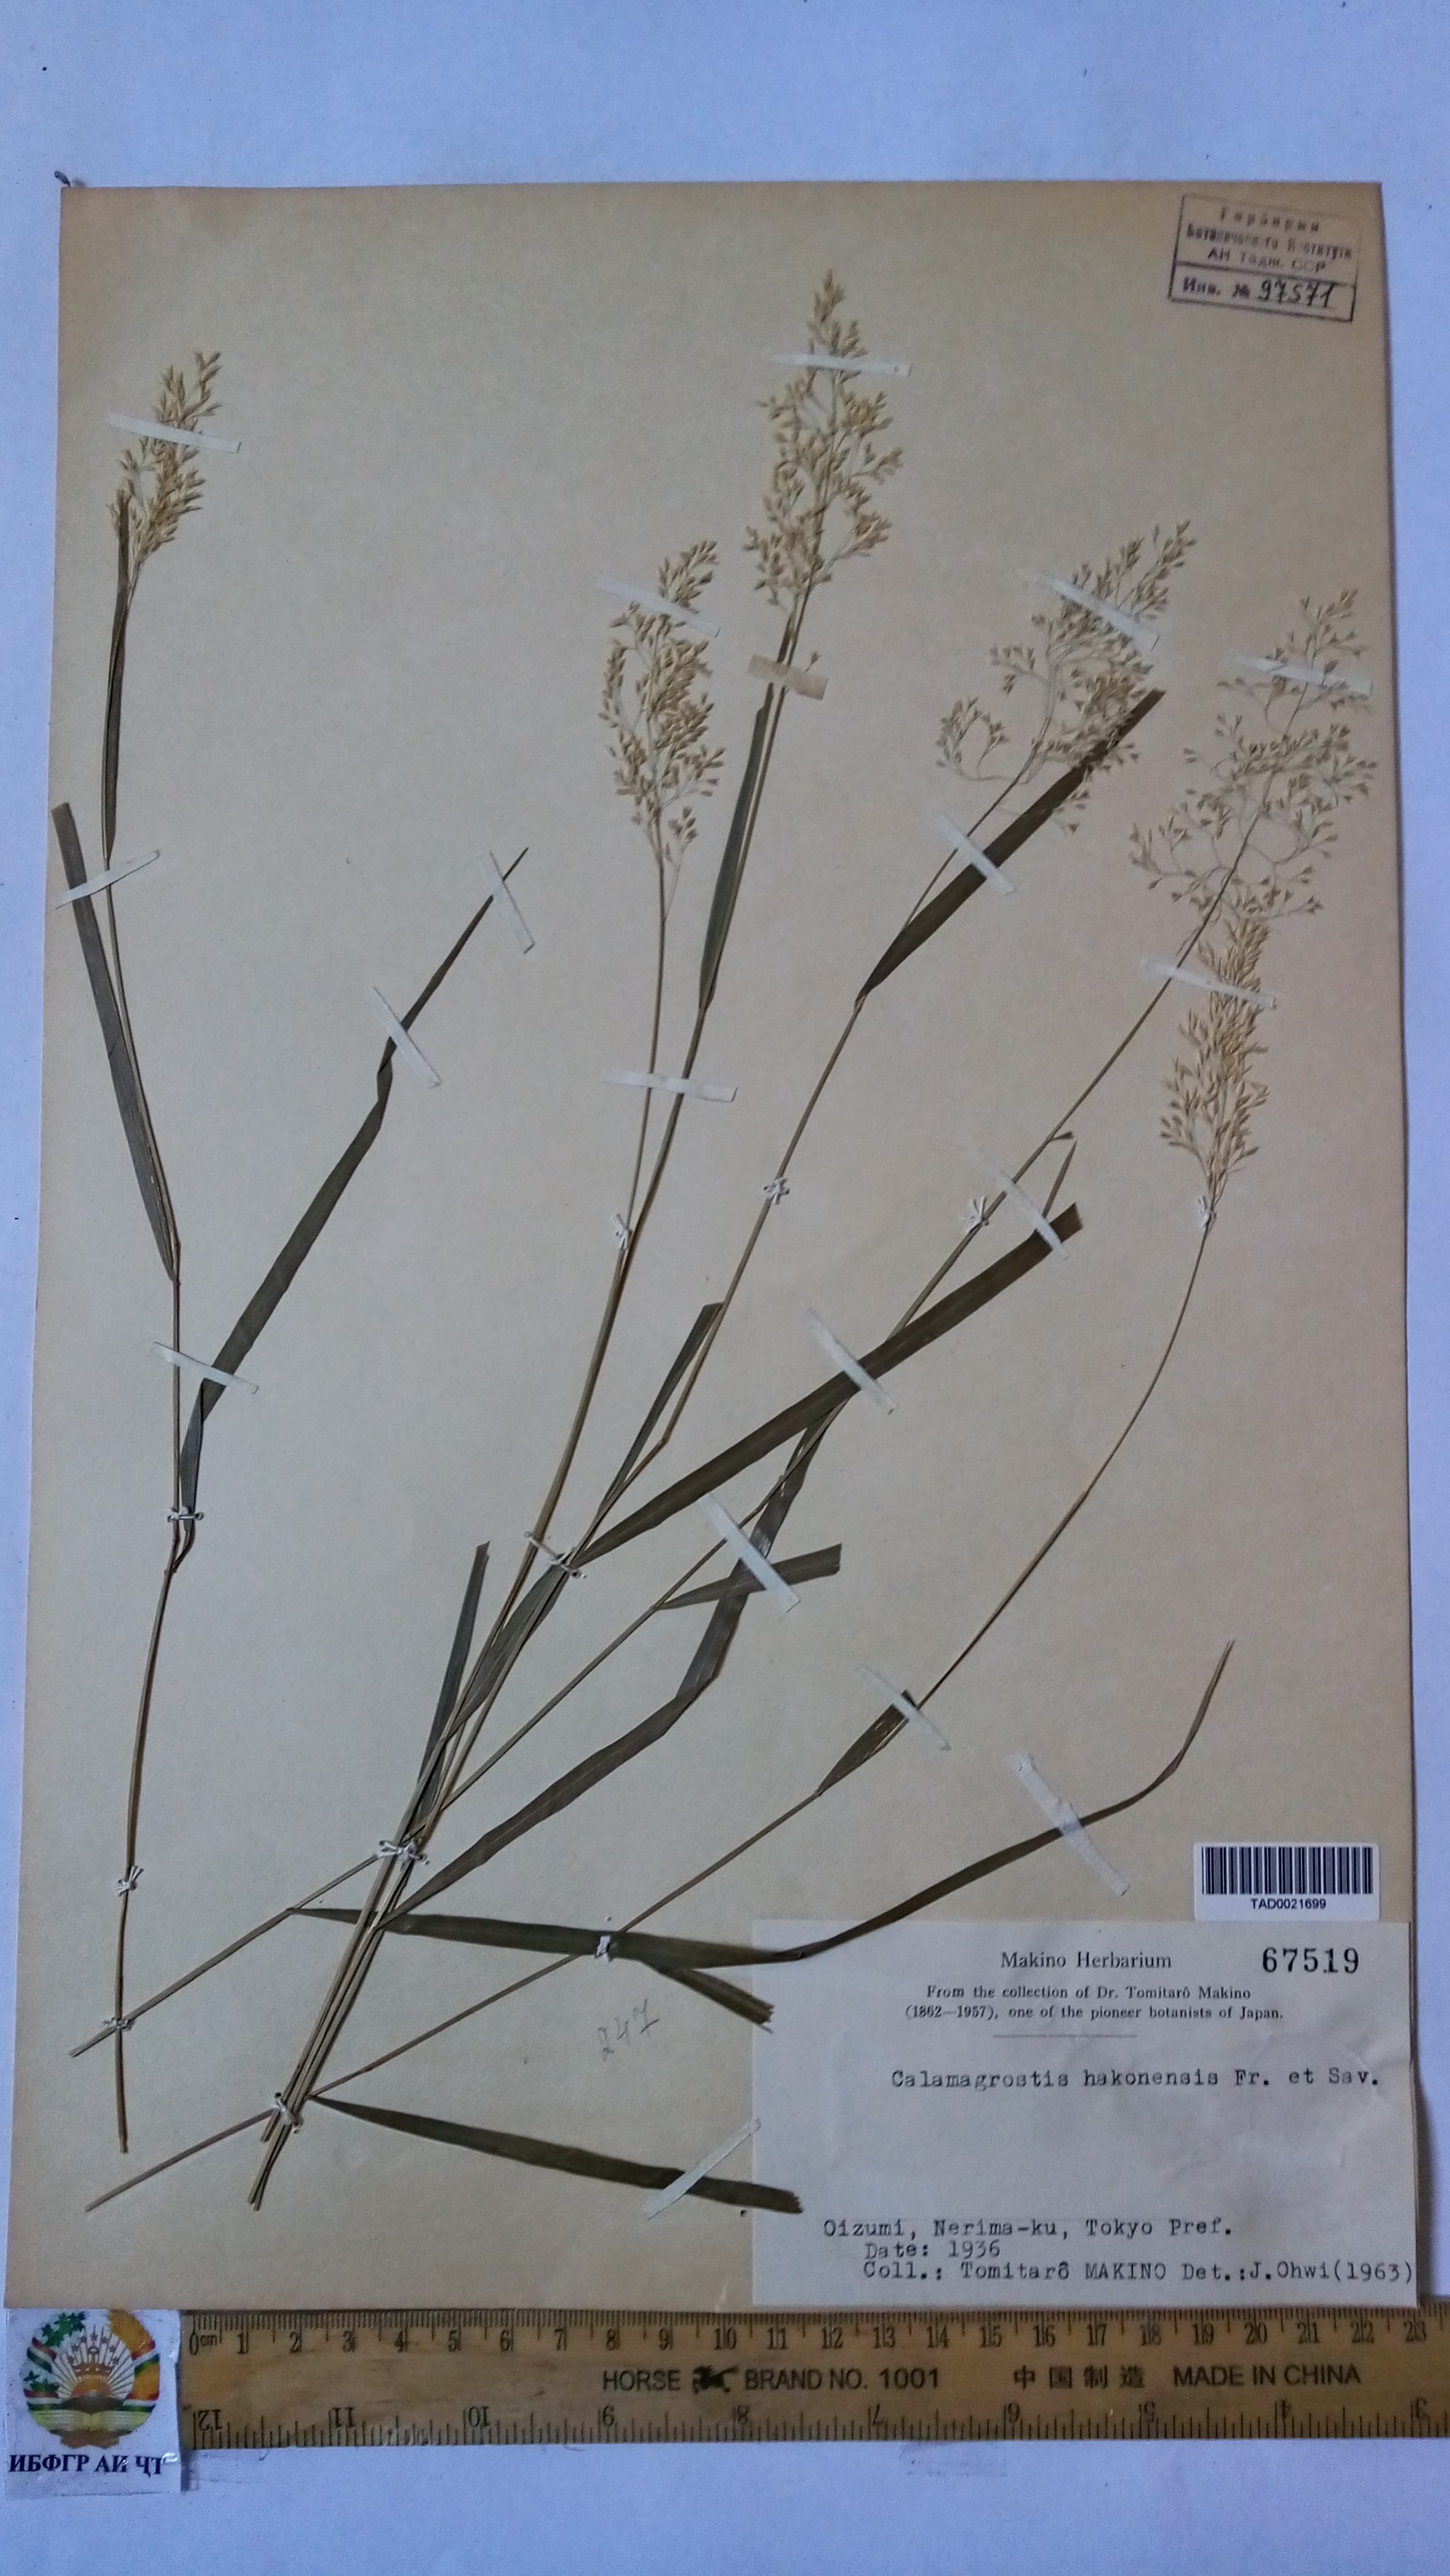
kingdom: Plantae
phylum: Tracheophyta
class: Liliopsida
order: Poales
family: Poaceae
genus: Calamagrostis
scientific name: Calamagrostis hakonensis
